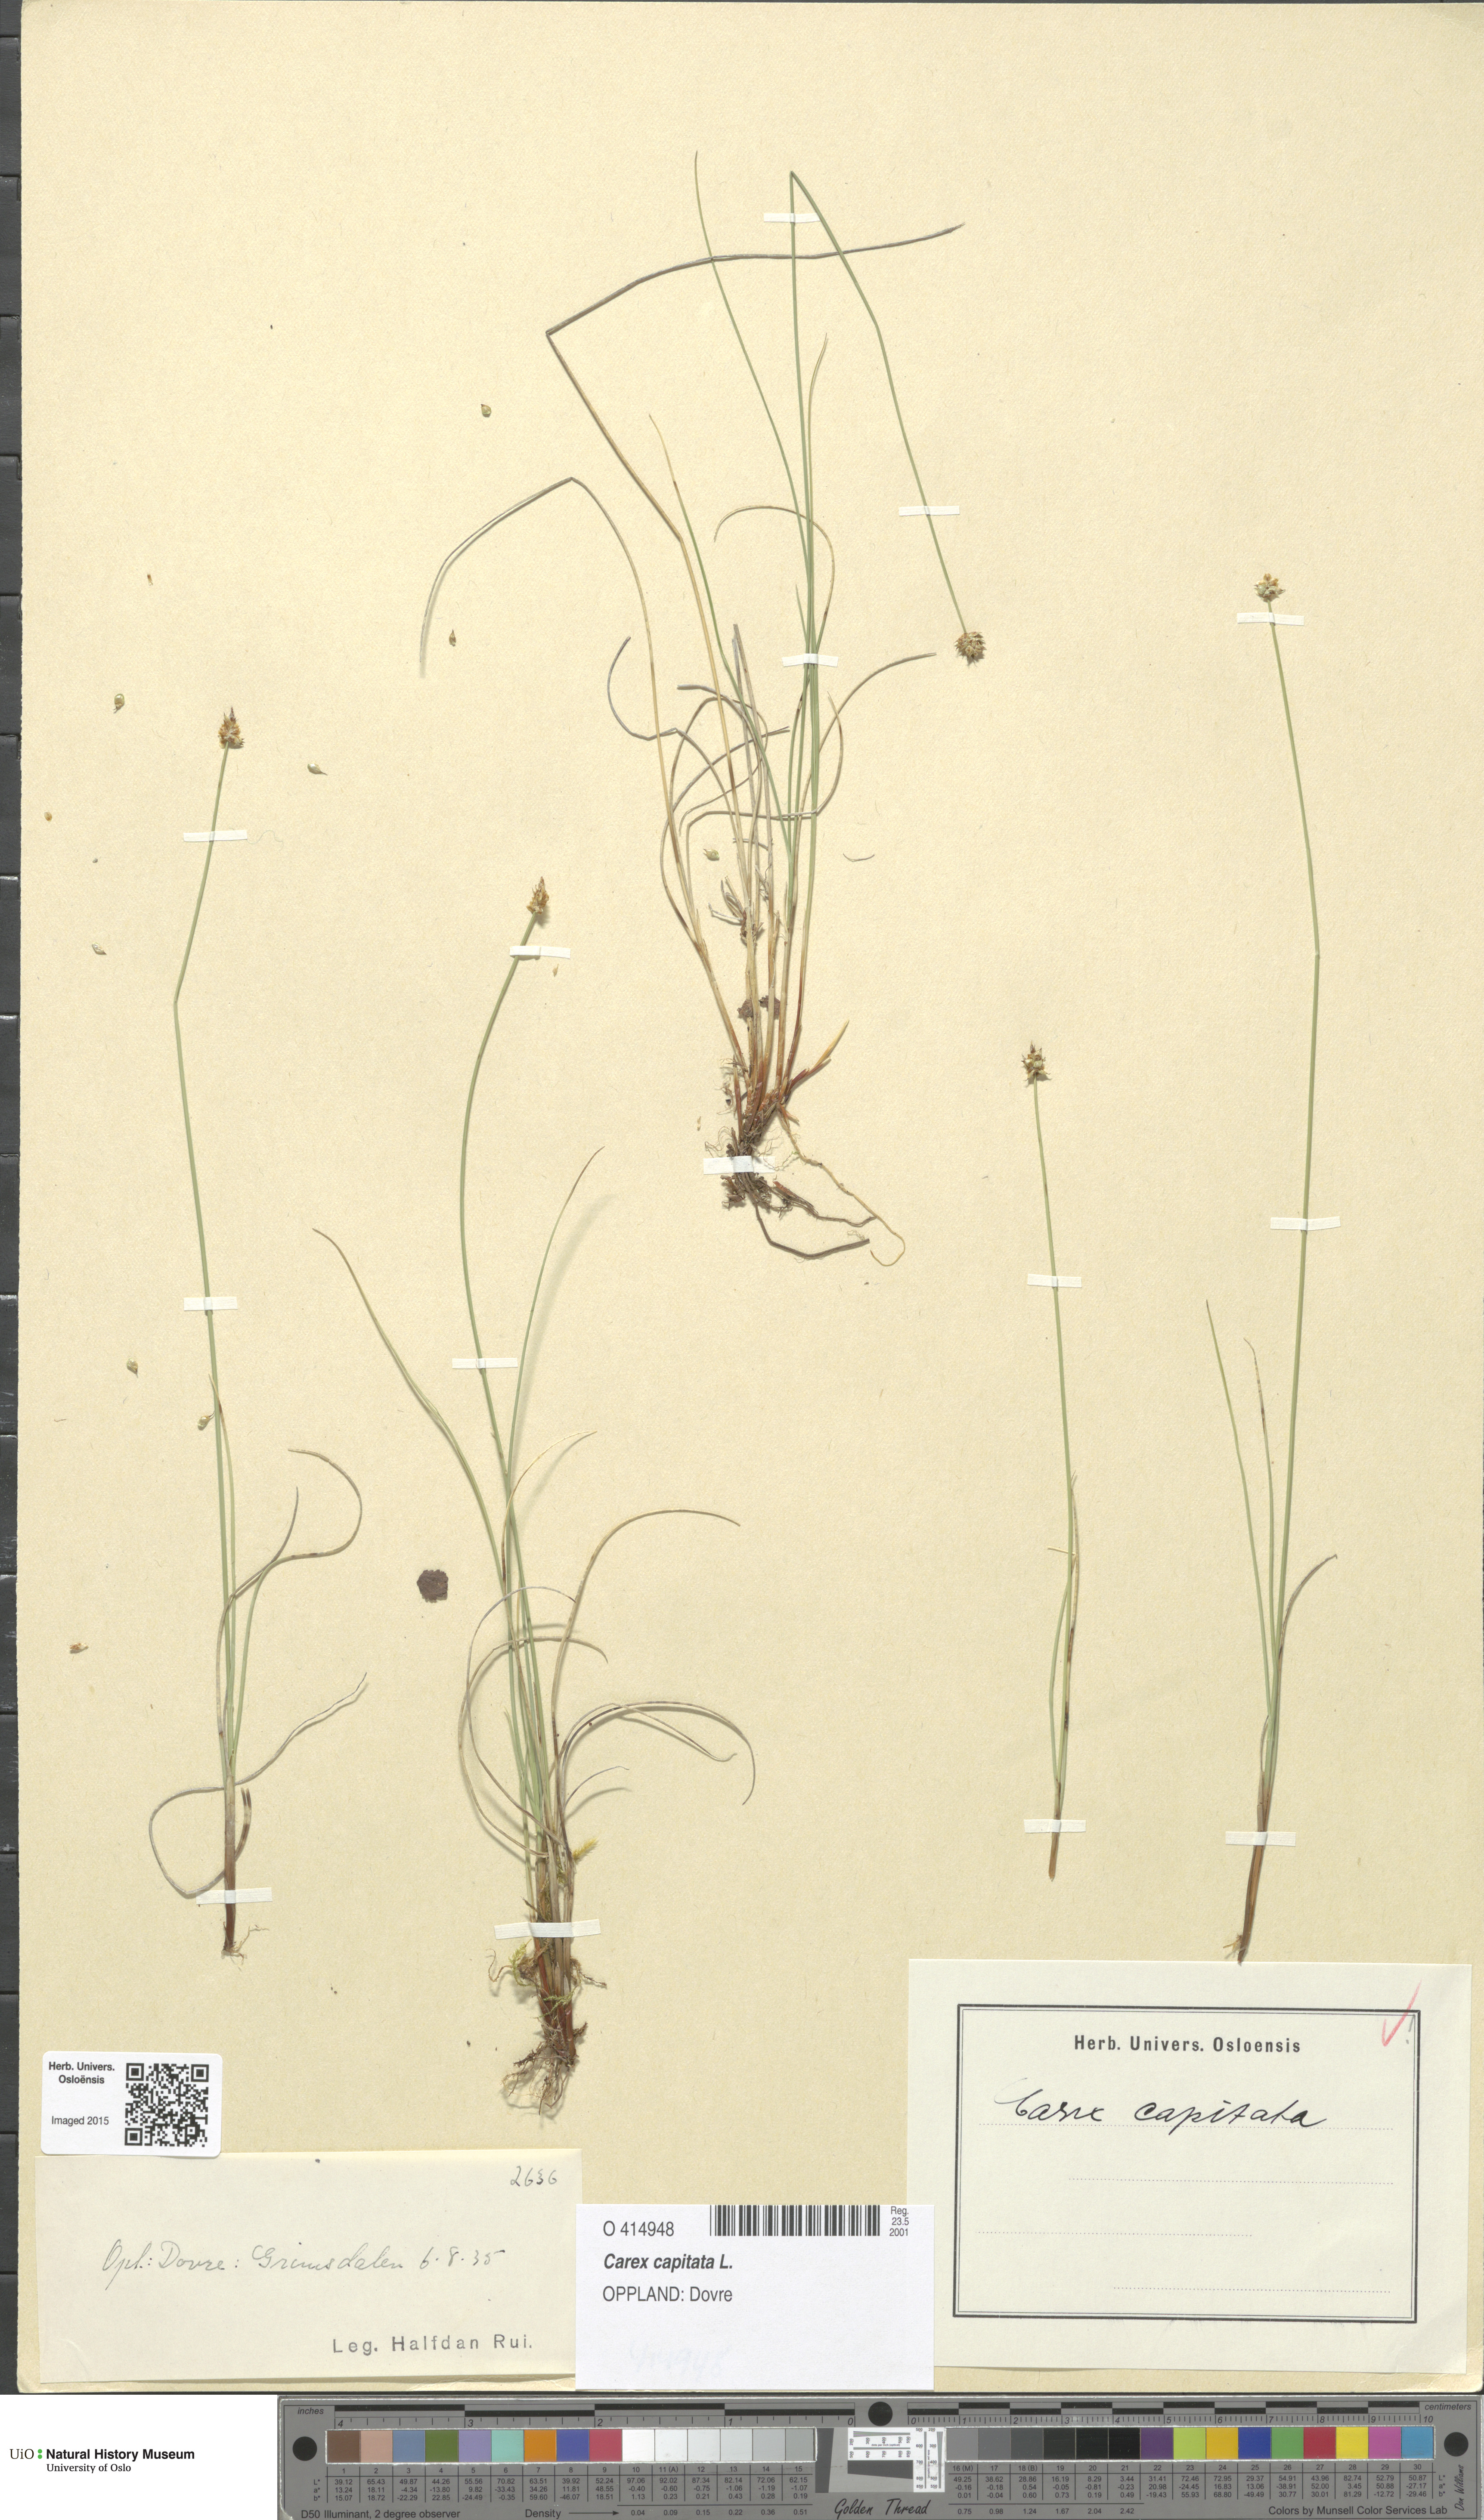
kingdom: Plantae
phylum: Tracheophyta
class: Liliopsida
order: Poales
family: Cyperaceae
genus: Carex
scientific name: Carex capitata
